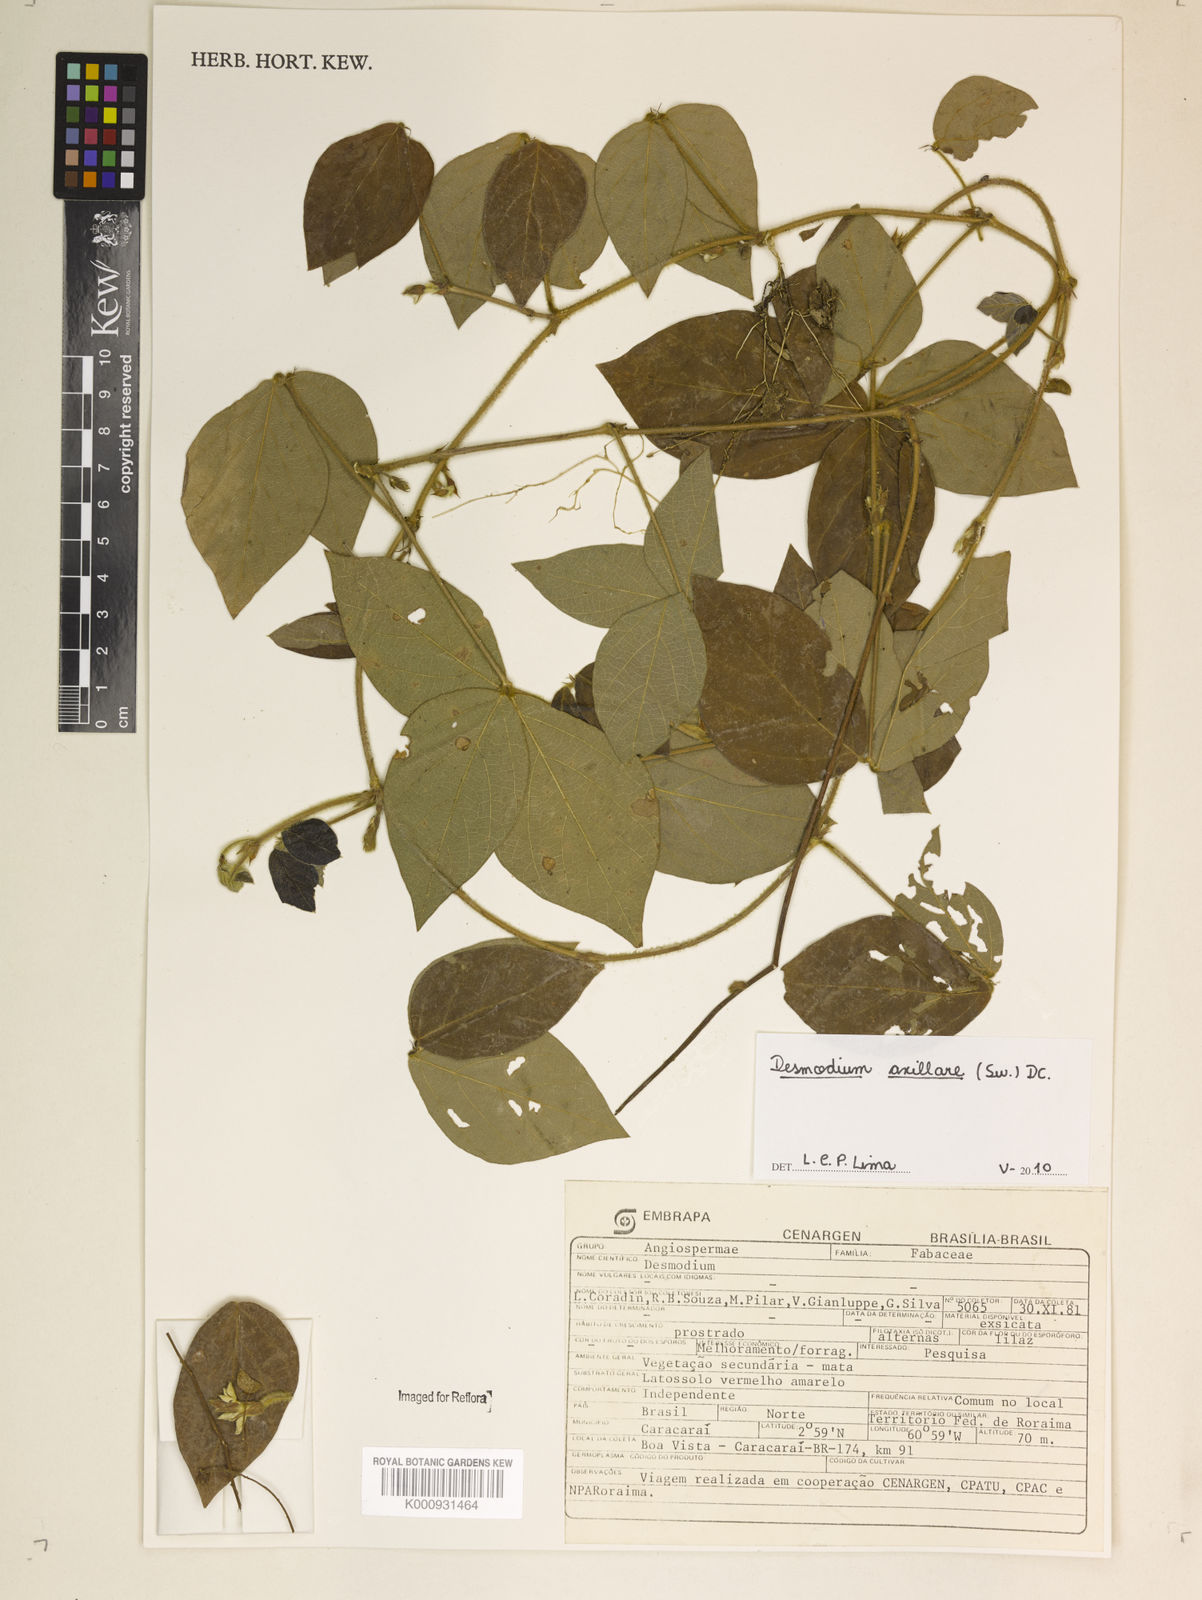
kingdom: Plantae
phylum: Tracheophyta
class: Magnoliopsida
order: Fabales
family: Fabaceae
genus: Desmodium
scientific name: Desmodium axillare
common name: Wire with
